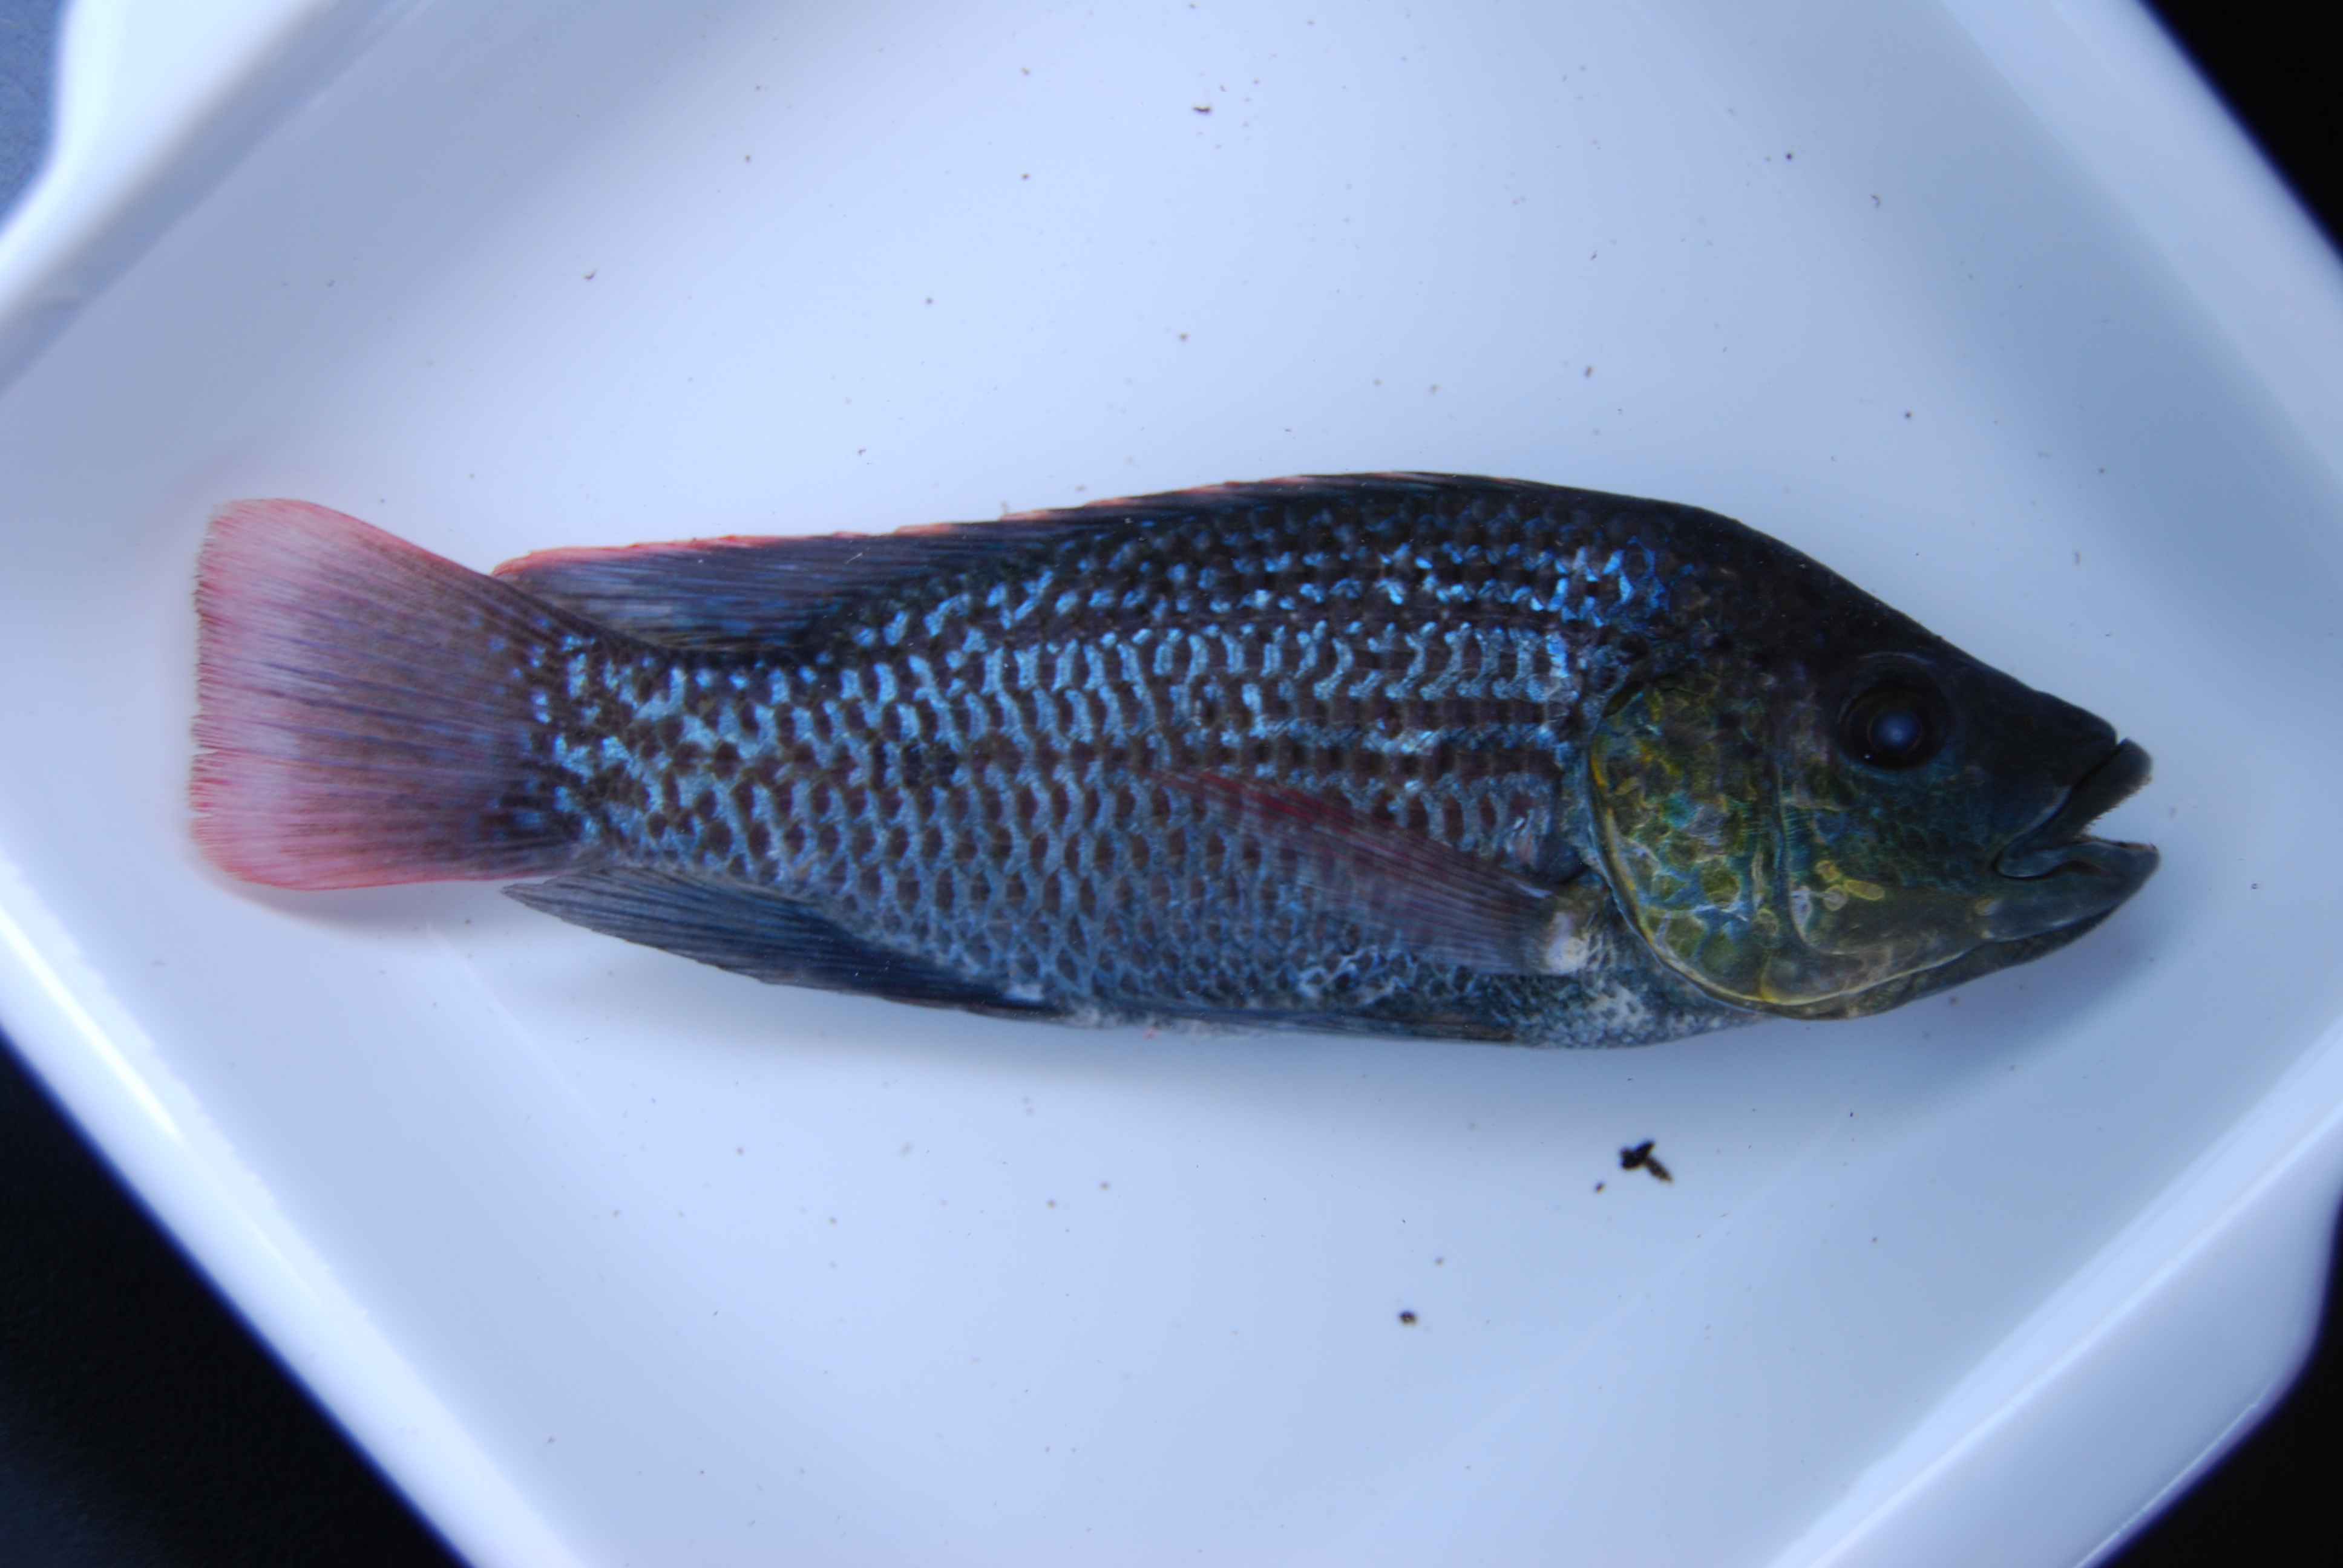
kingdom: Animalia
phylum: Chordata
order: Perciformes
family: Cichlidae
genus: Oreochromis
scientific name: Oreochromis mossambicus
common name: Mozambique tilapia
